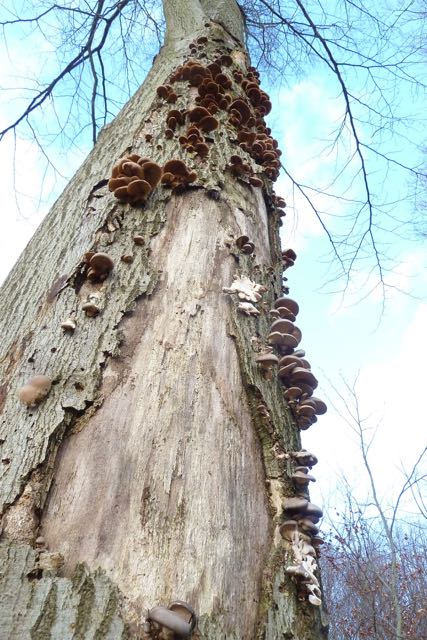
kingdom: Fungi
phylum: Basidiomycota
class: Agaricomycetes
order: Agaricales
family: Pleurotaceae
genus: Pleurotus
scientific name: Pleurotus ostreatus
